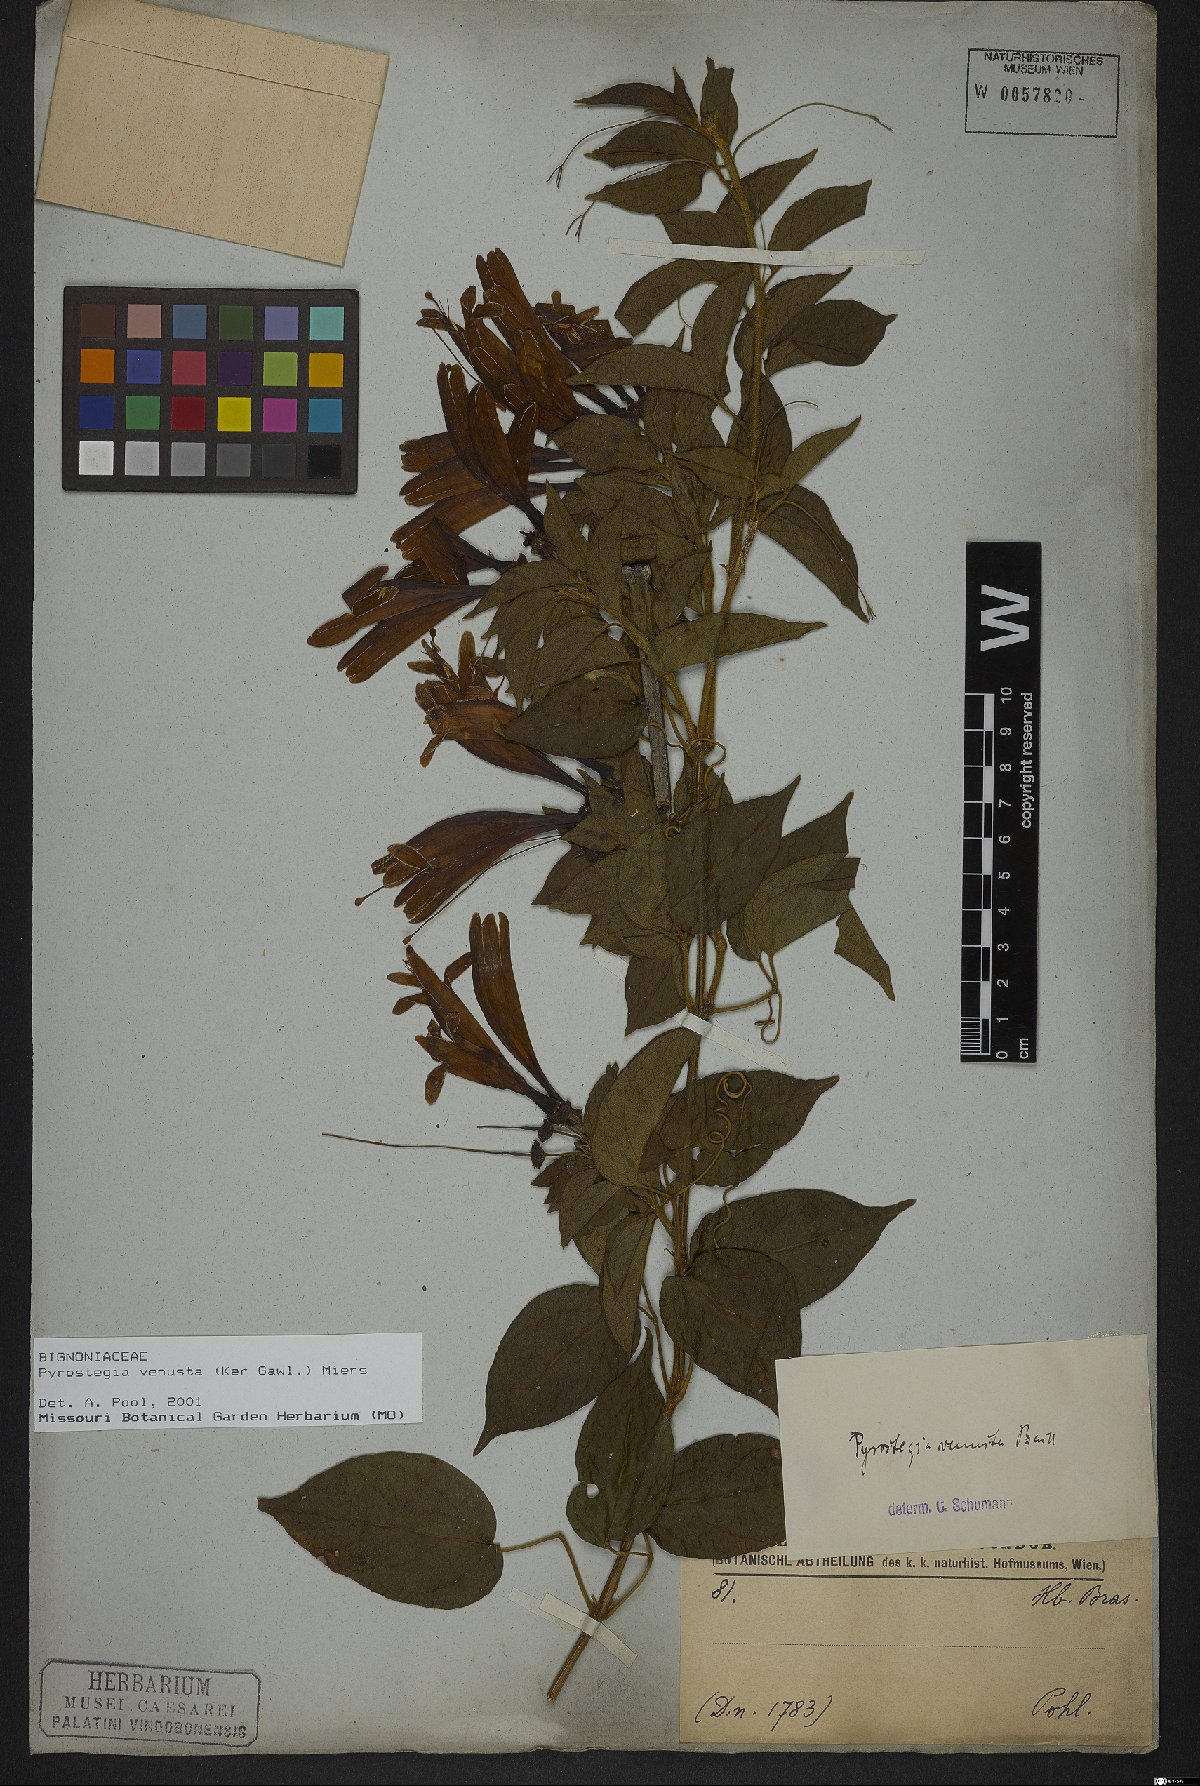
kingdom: Plantae
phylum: Tracheophyta
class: Magnoliopsida
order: Lamiales
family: Bignoniaceae
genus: Pyrostegia
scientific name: Pyrostegia venusta
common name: Flamevine
